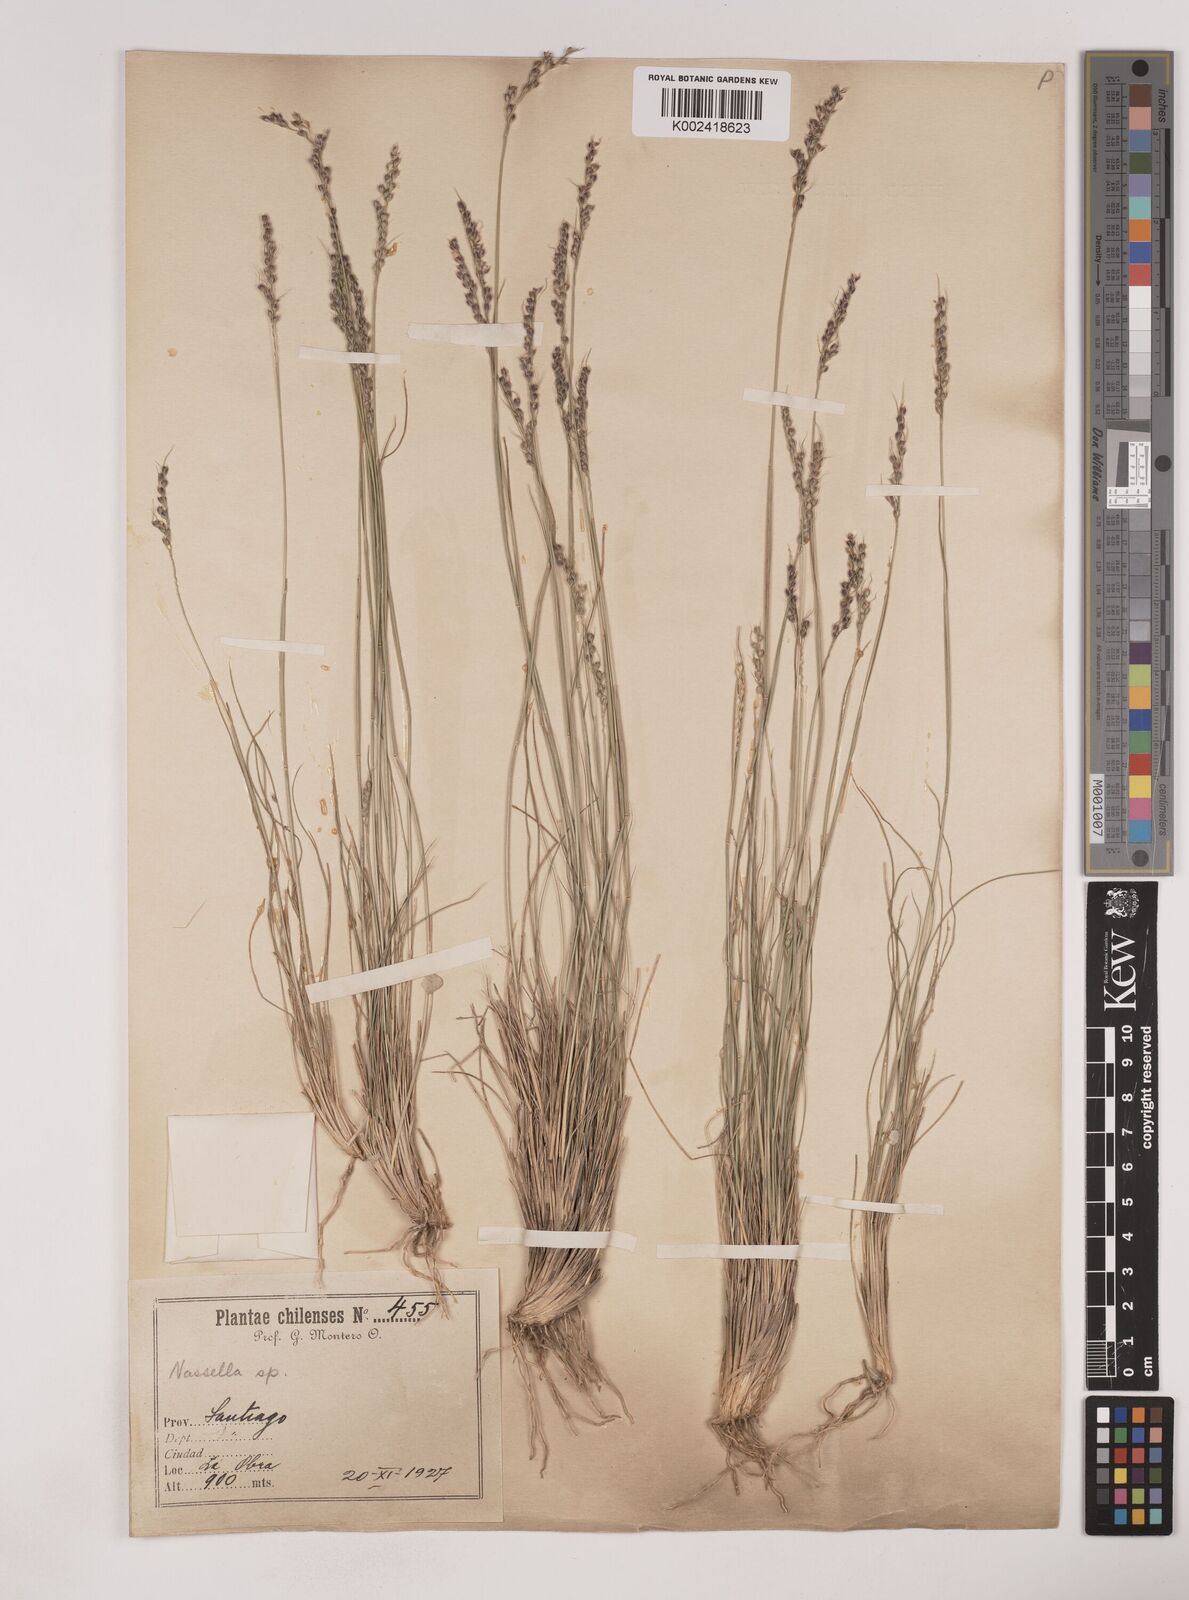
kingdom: Plantae
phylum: Tracheophyta
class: Liliopsida
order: Poales
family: Poaceae
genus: Piptochaetium
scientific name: Piptochaetium
